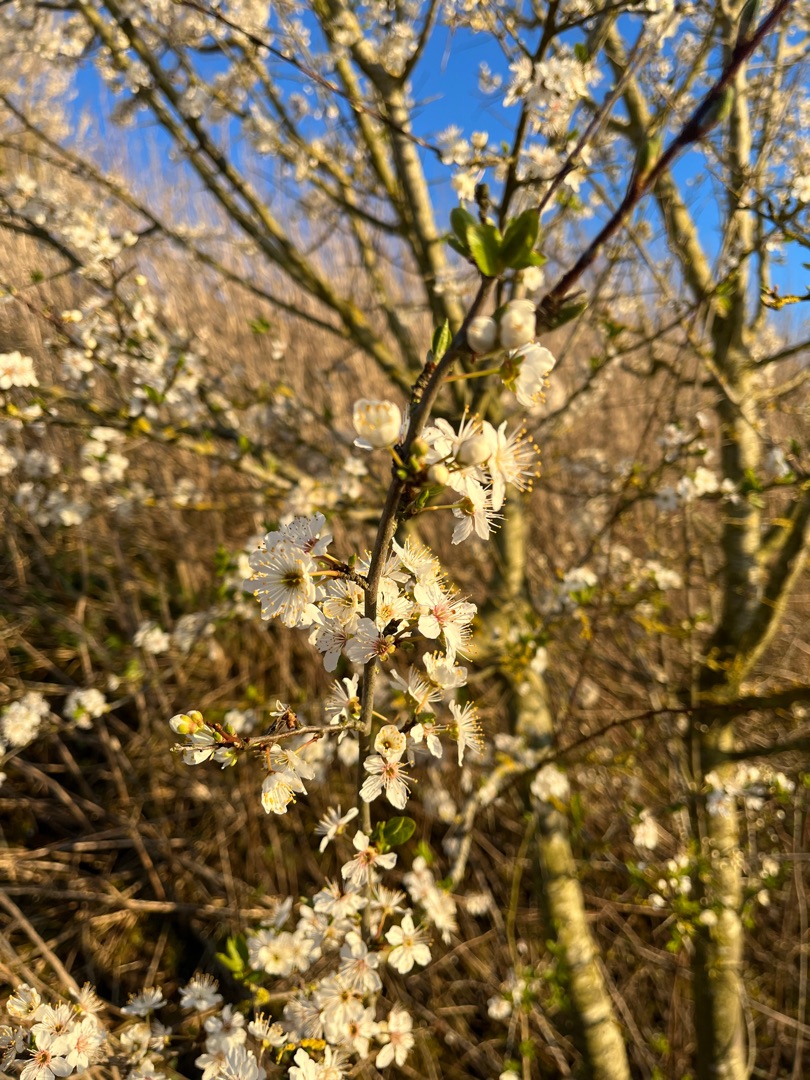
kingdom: Plantae
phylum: Tracheophyta
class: Magnoliopsida
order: Rosales
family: Rosaceae
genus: Prunus
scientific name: Prunus cerasifera
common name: Mirabel
